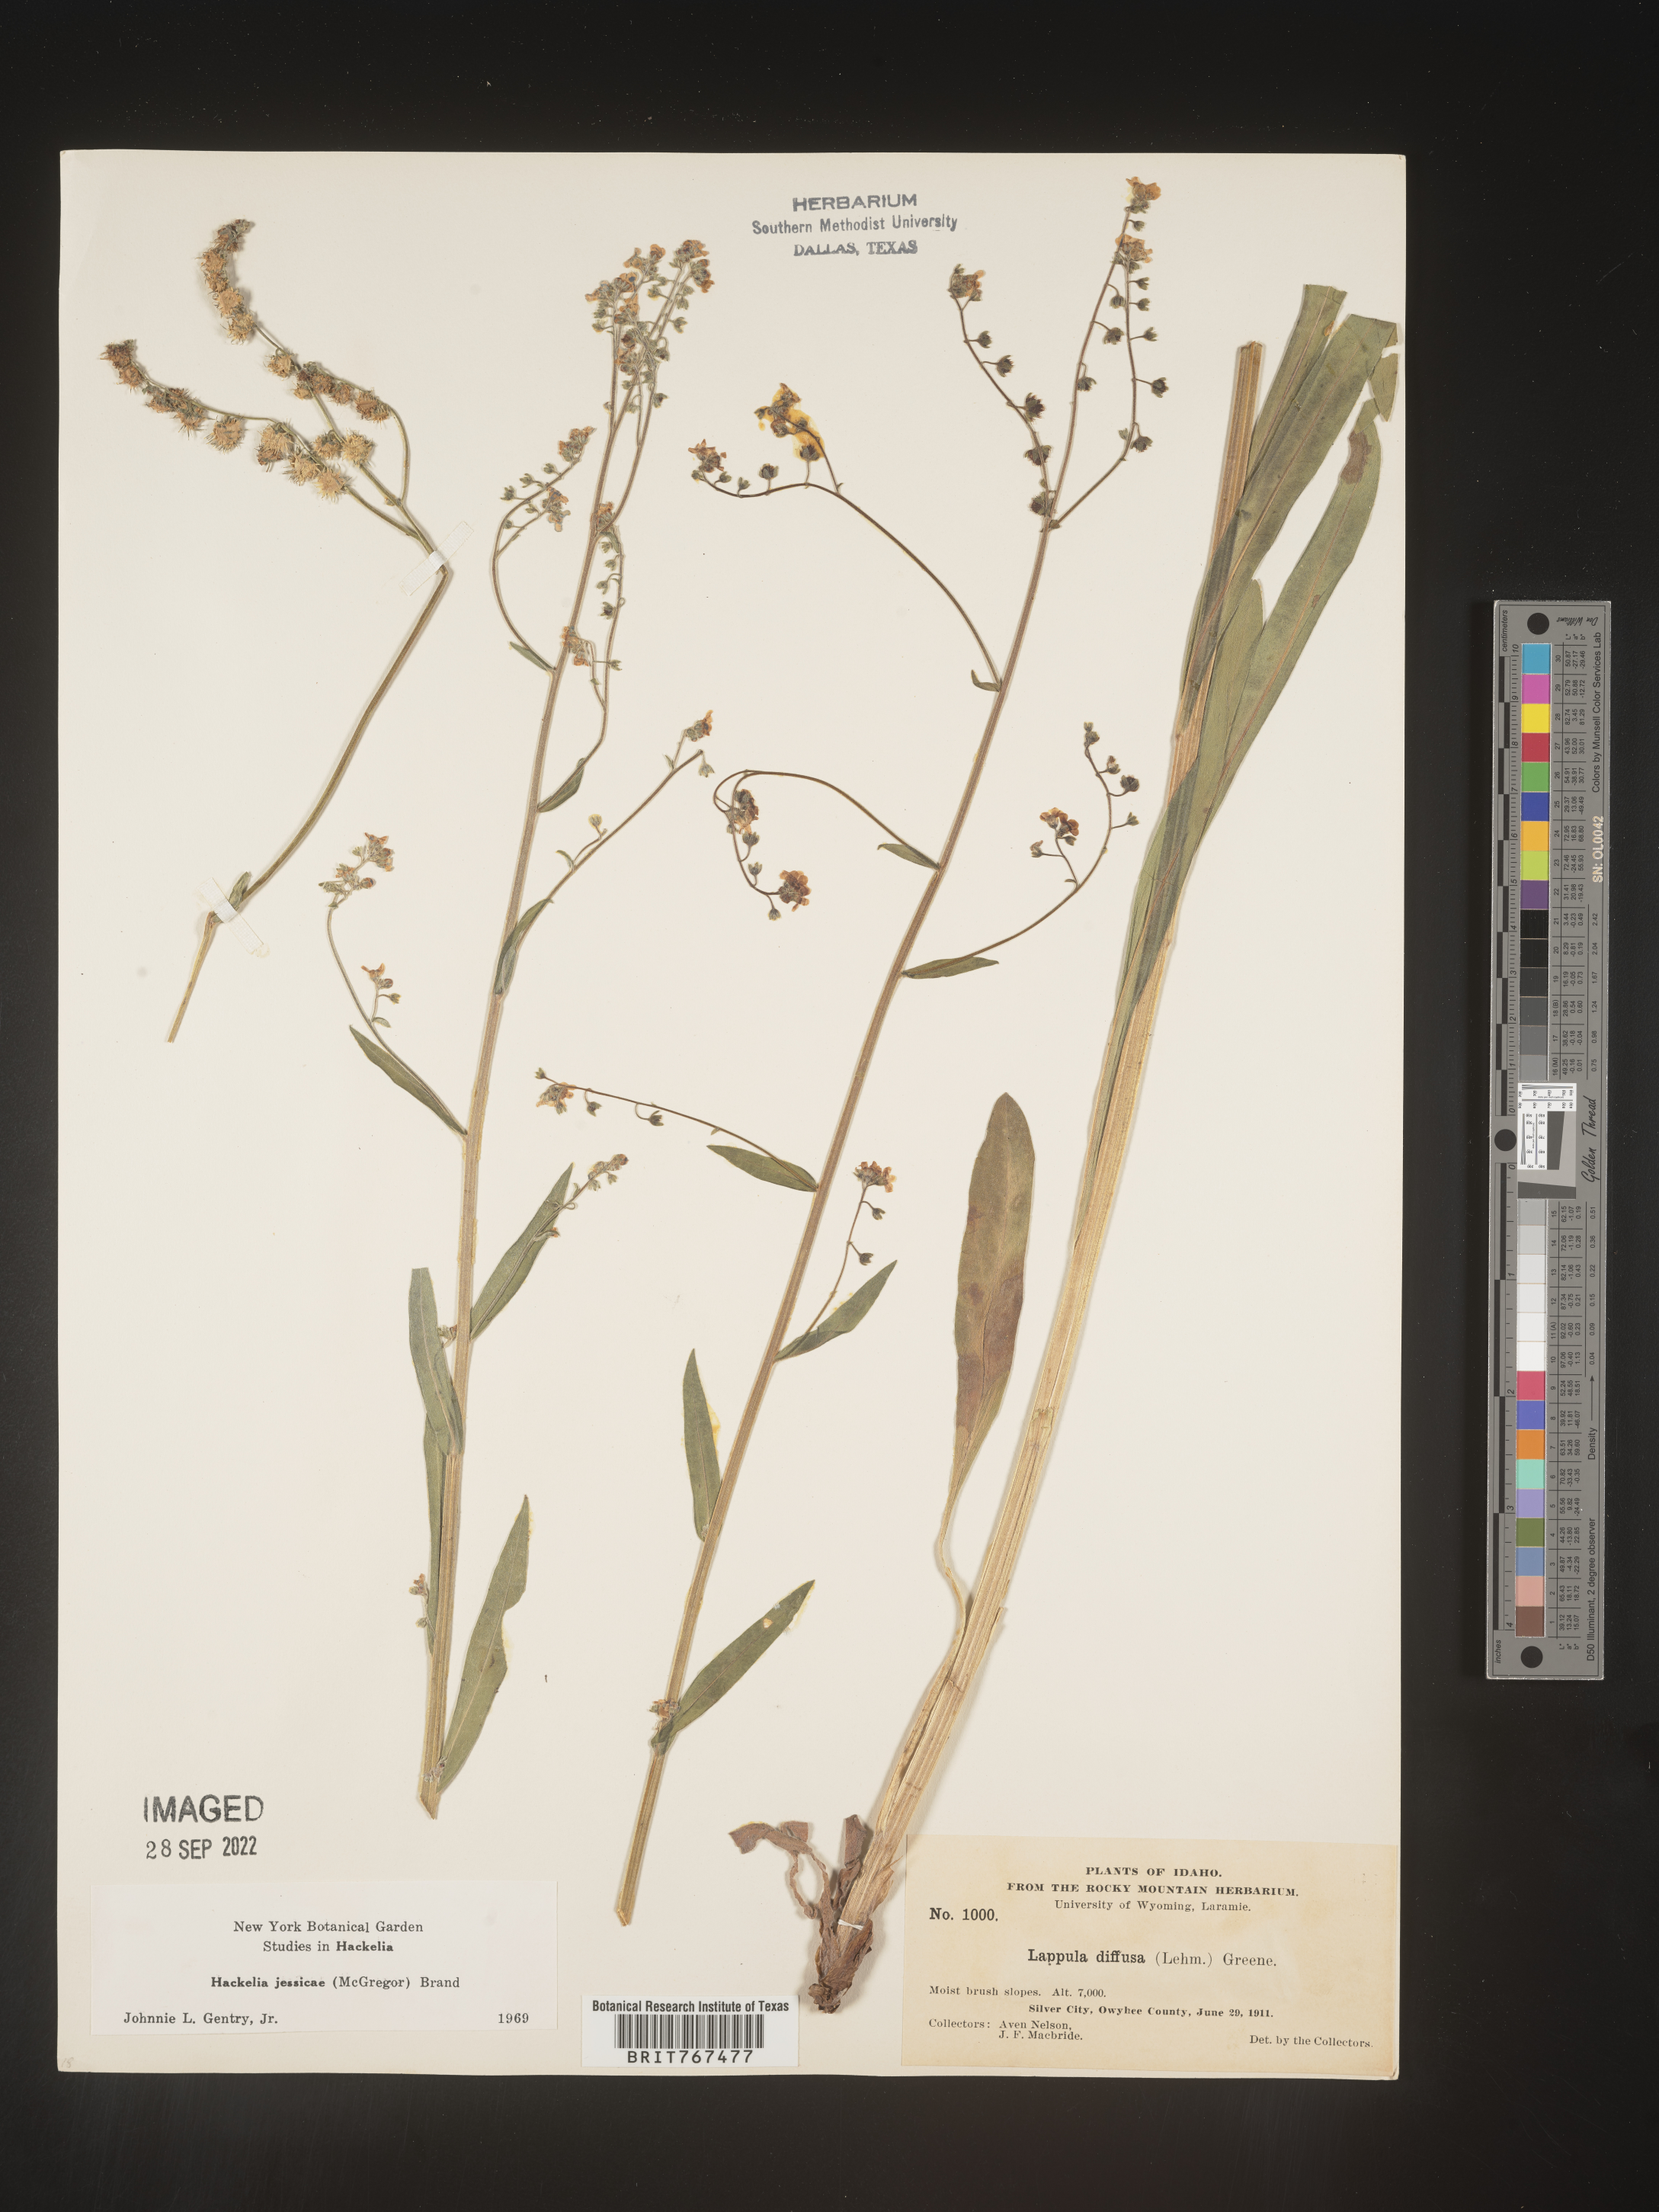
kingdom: Plantae
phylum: Tracheophyta
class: Magnoliopsida
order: Boraginales
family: Boraginaceae
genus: Hackelia
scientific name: Hackelia micrantha
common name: Meadow stickseed
